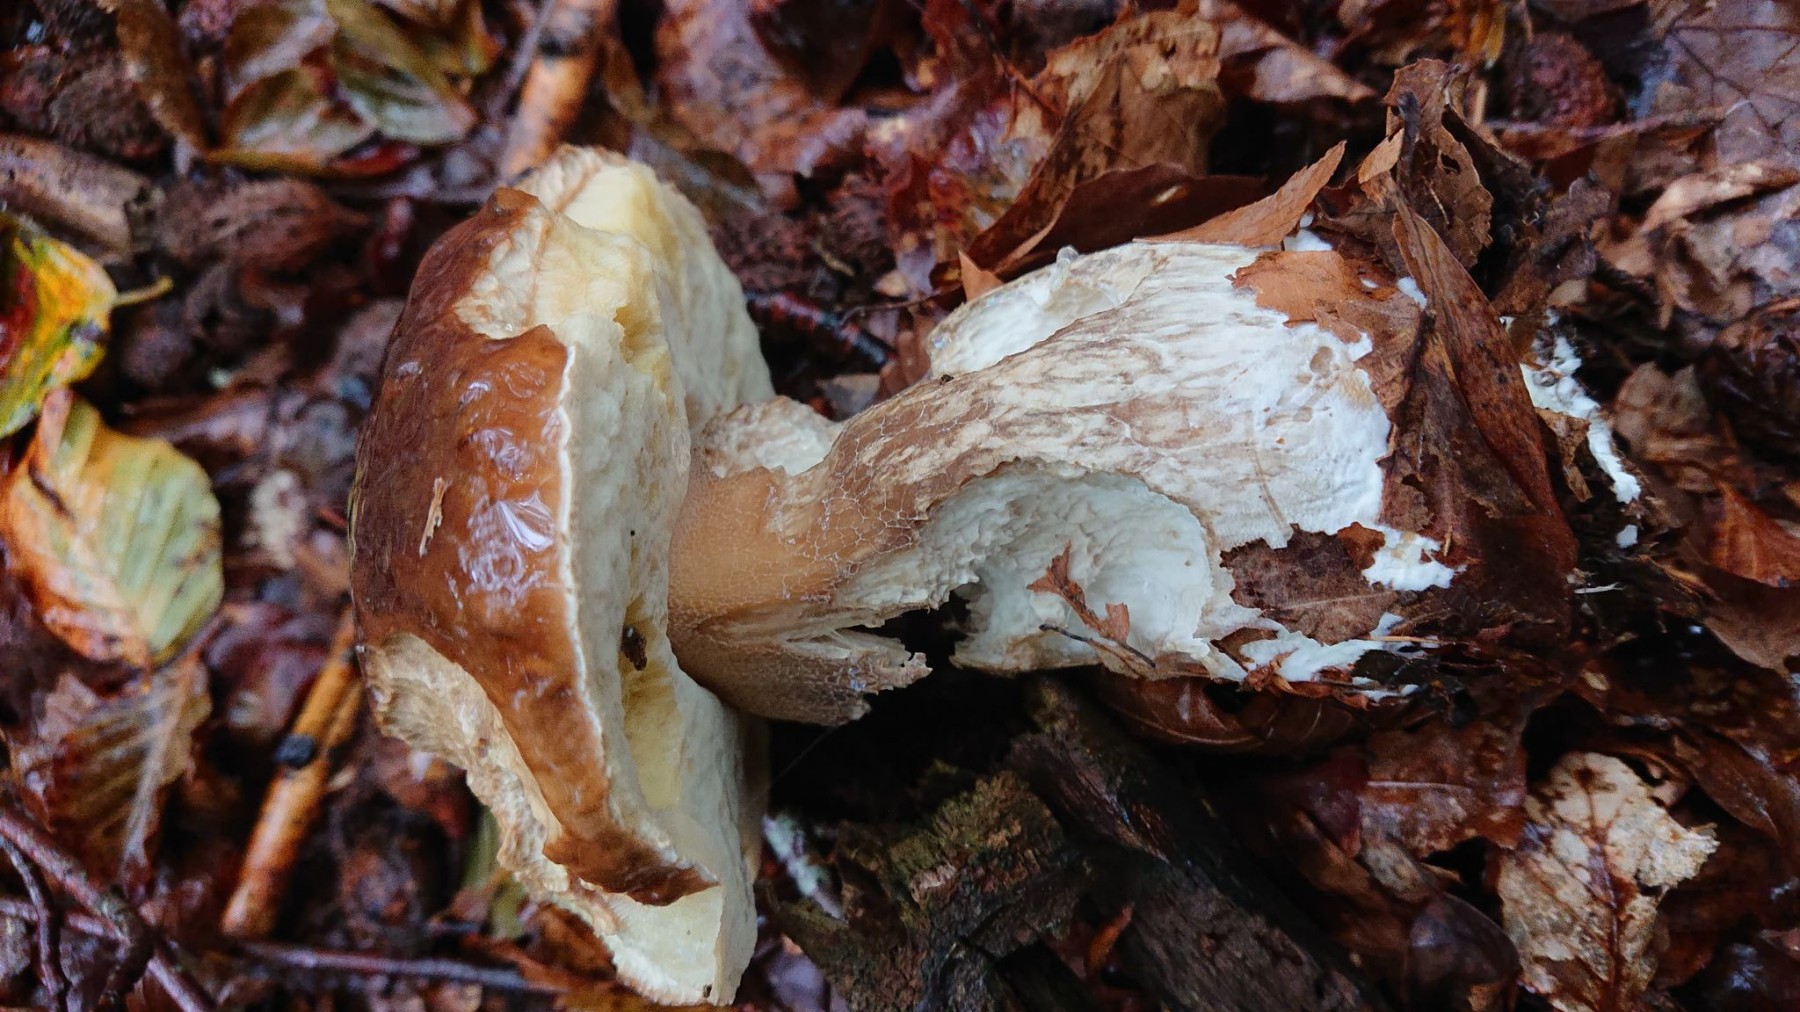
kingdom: Fungi
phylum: Basidiomycota
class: Agaricomycetes
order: Boletales
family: Boletaceae
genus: Boletus
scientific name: Boletus edulis
